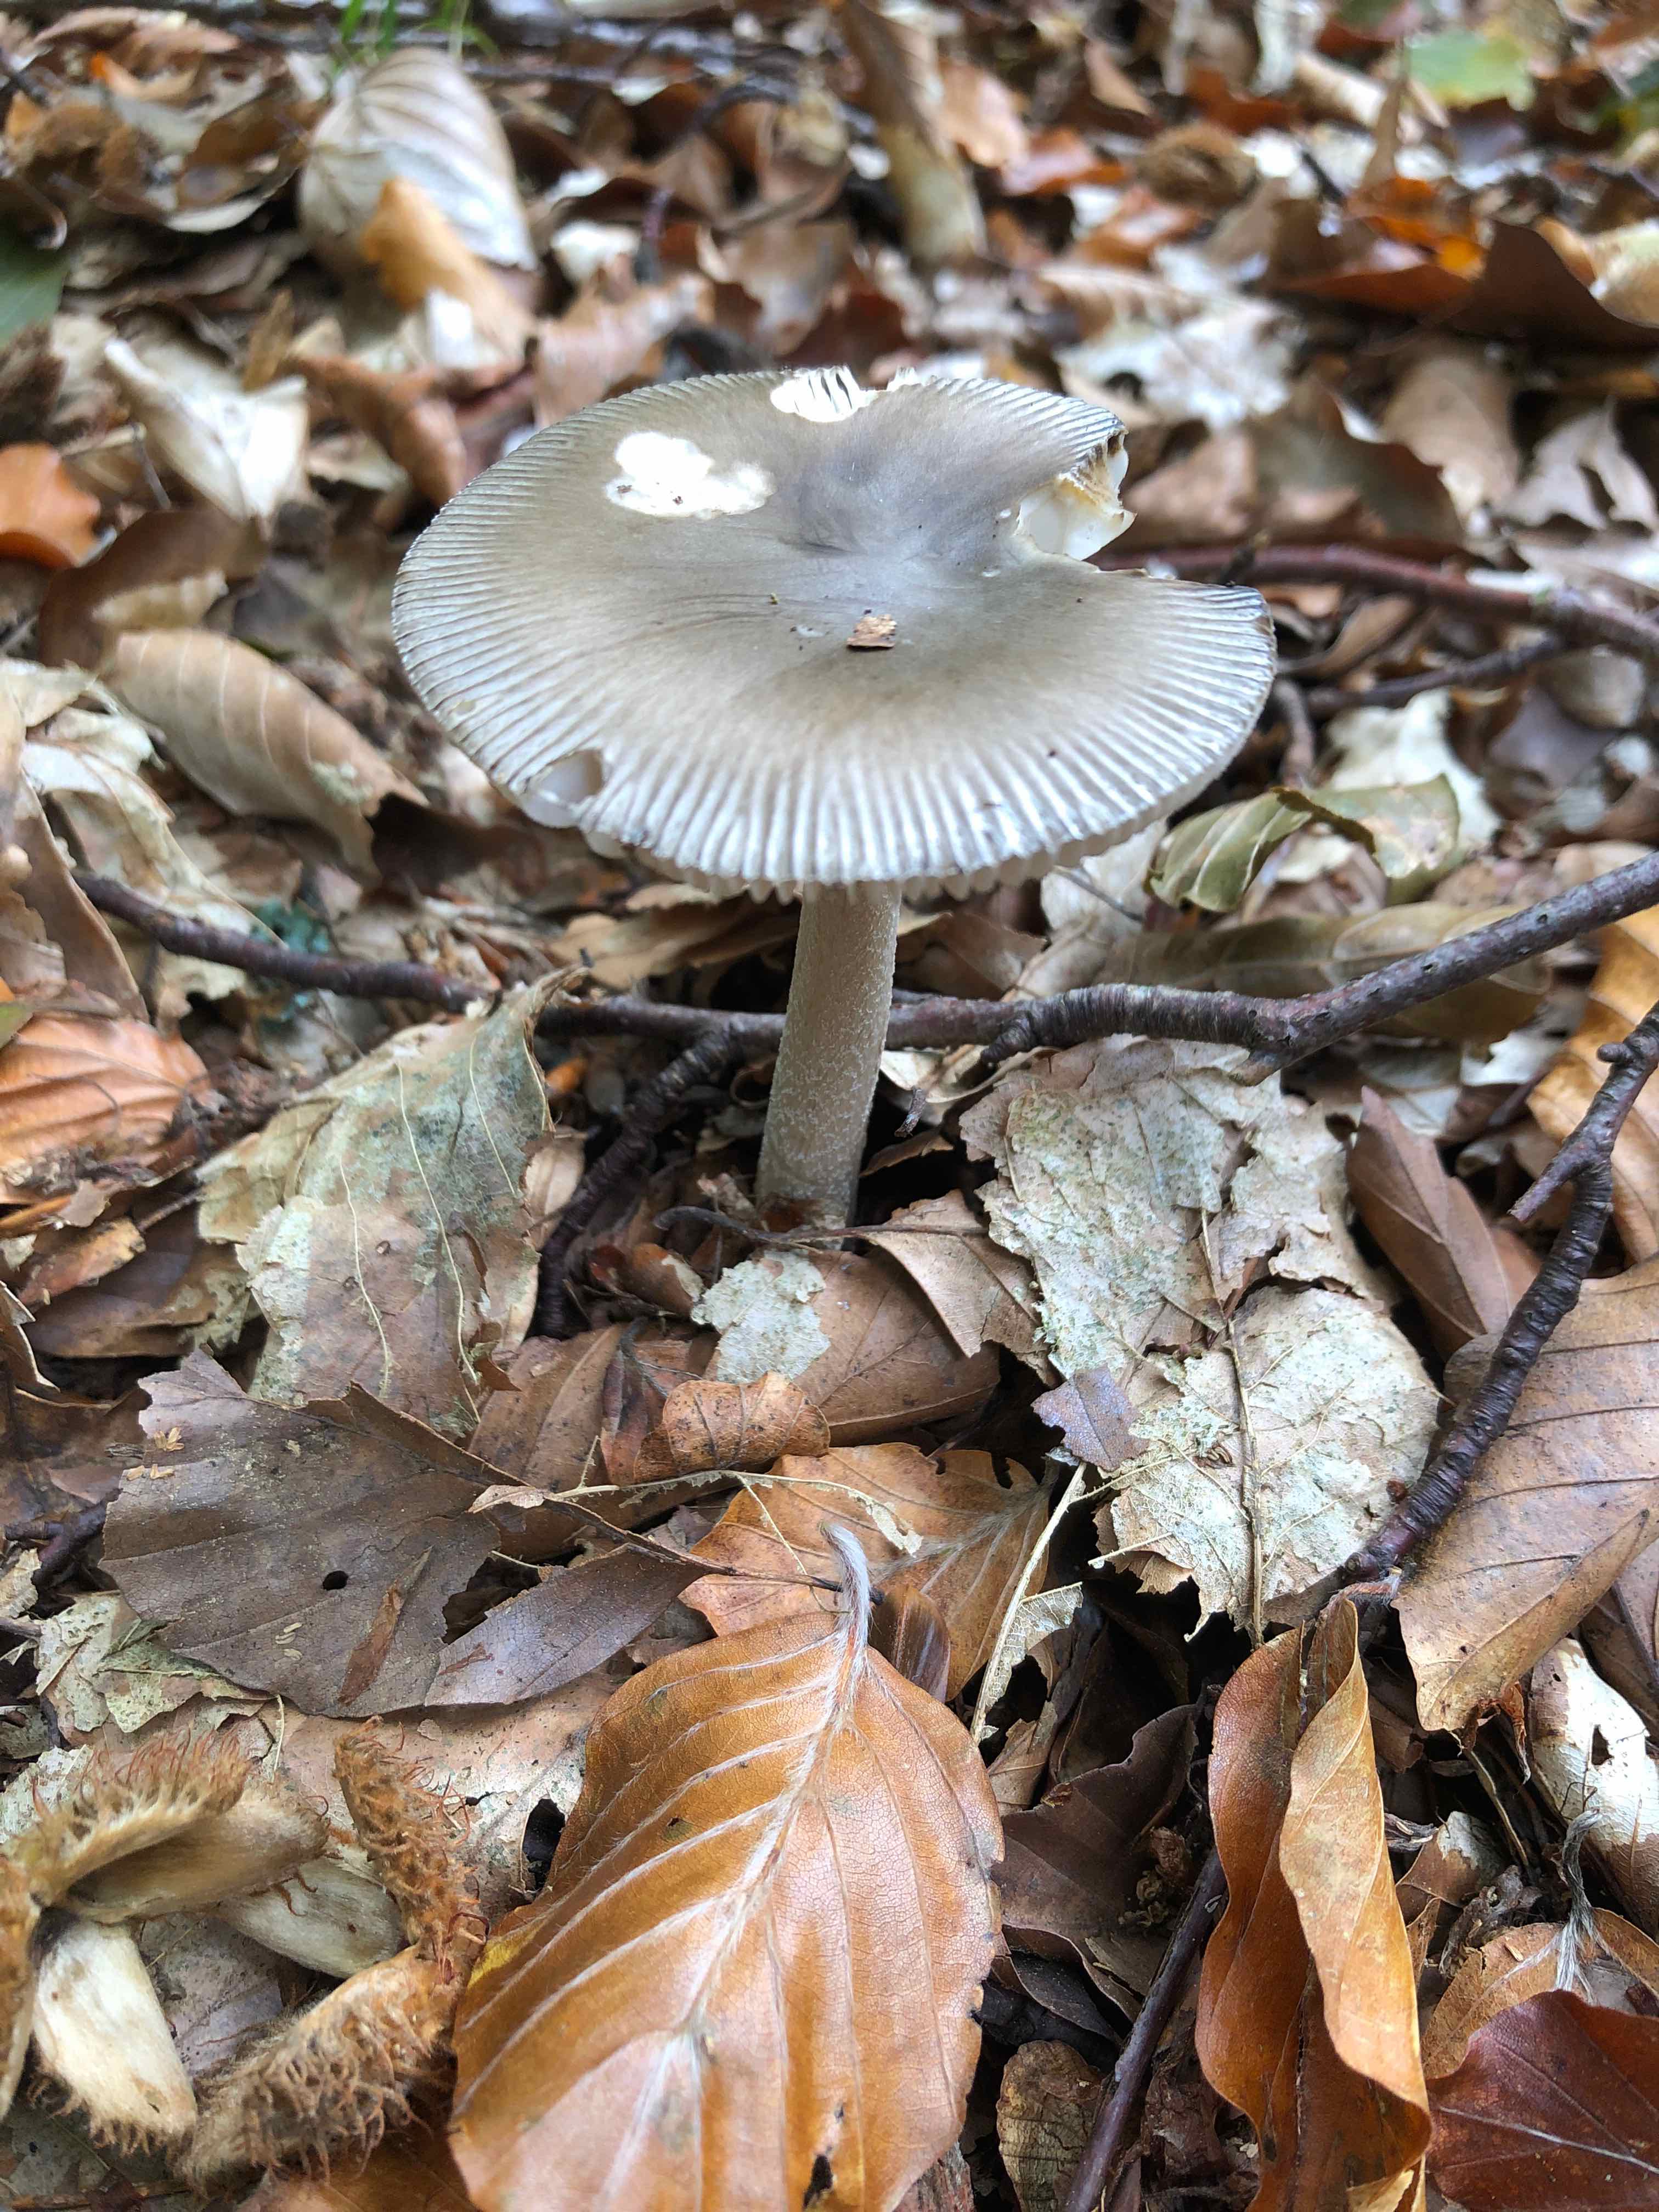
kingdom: Fungi
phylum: Basidiomycota
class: Agaricomycetes
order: Agaricales
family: Amanitaceae
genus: Amanita
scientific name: Amanita vaginata
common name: grå kam-fluesvamp
